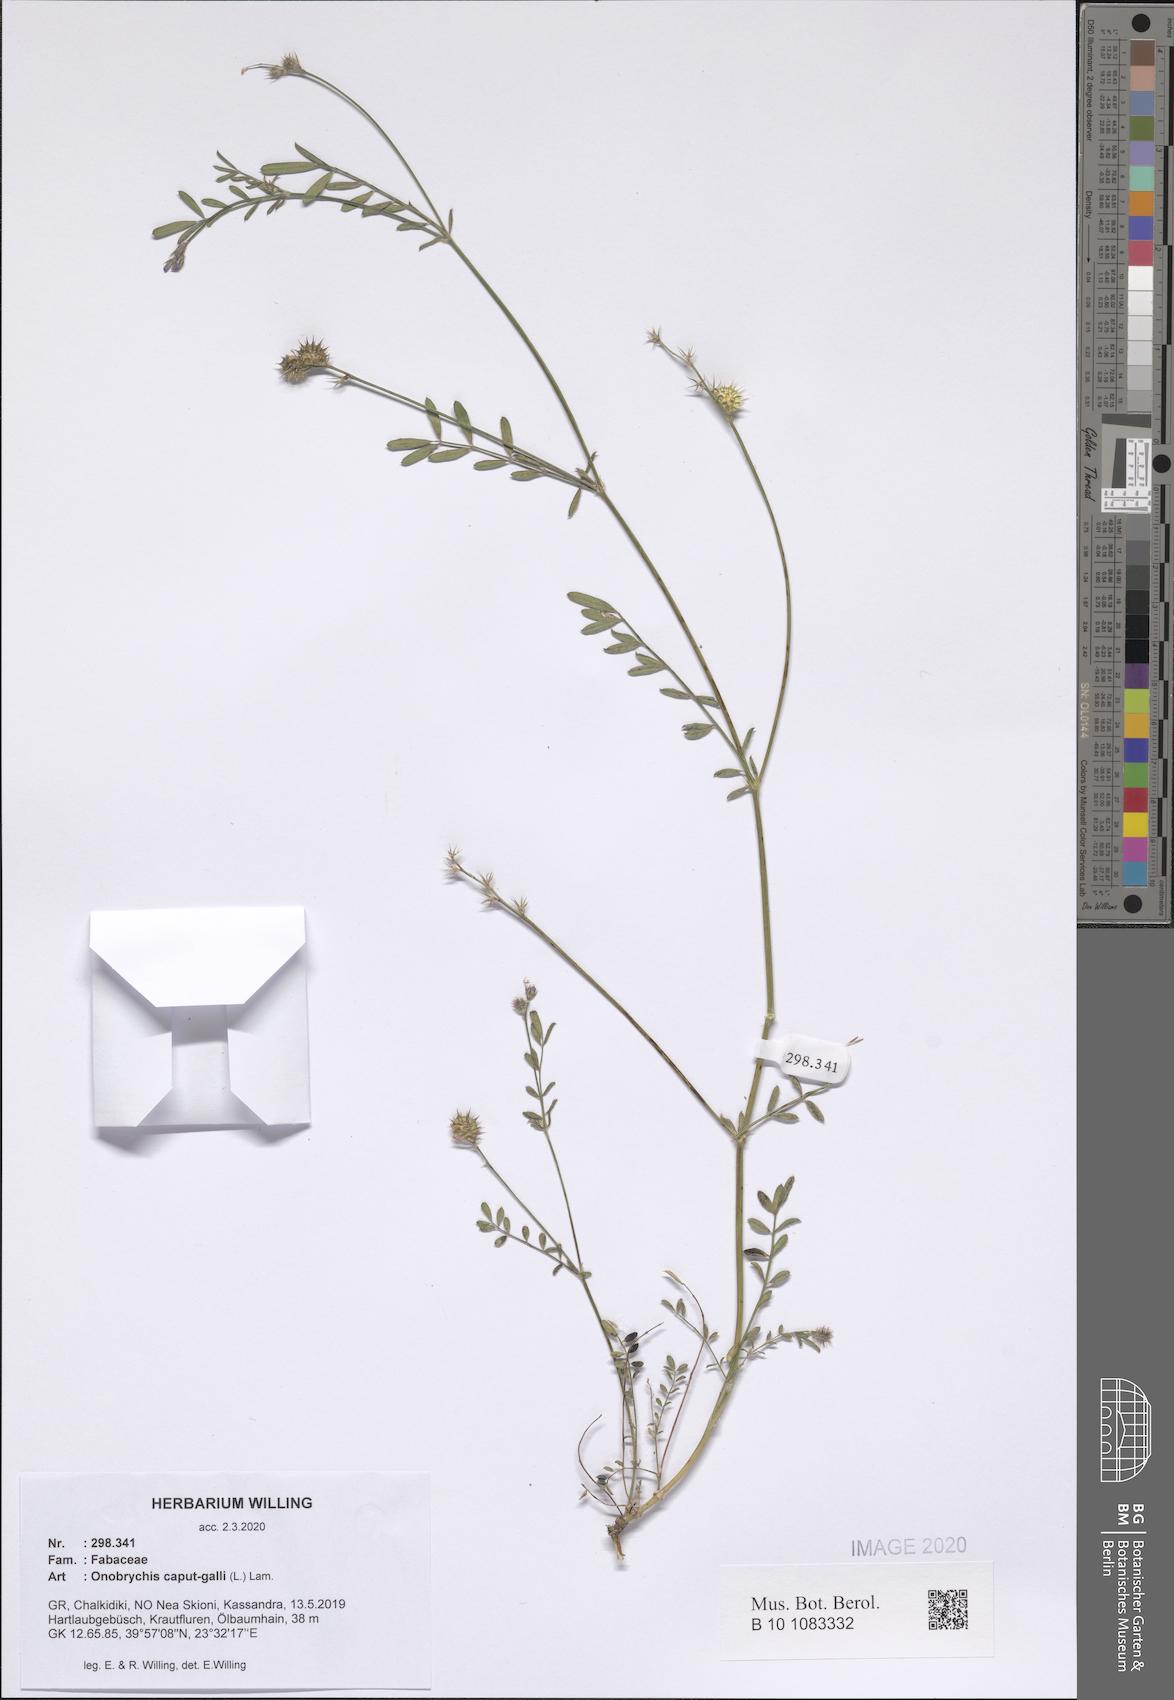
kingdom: Plantae
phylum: Tracheophyta
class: Magnoliopsida
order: Fabales
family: Fabaceae
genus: Onobrychis
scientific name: Onobrychis caput-galli
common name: Cockscomb sainfoin
